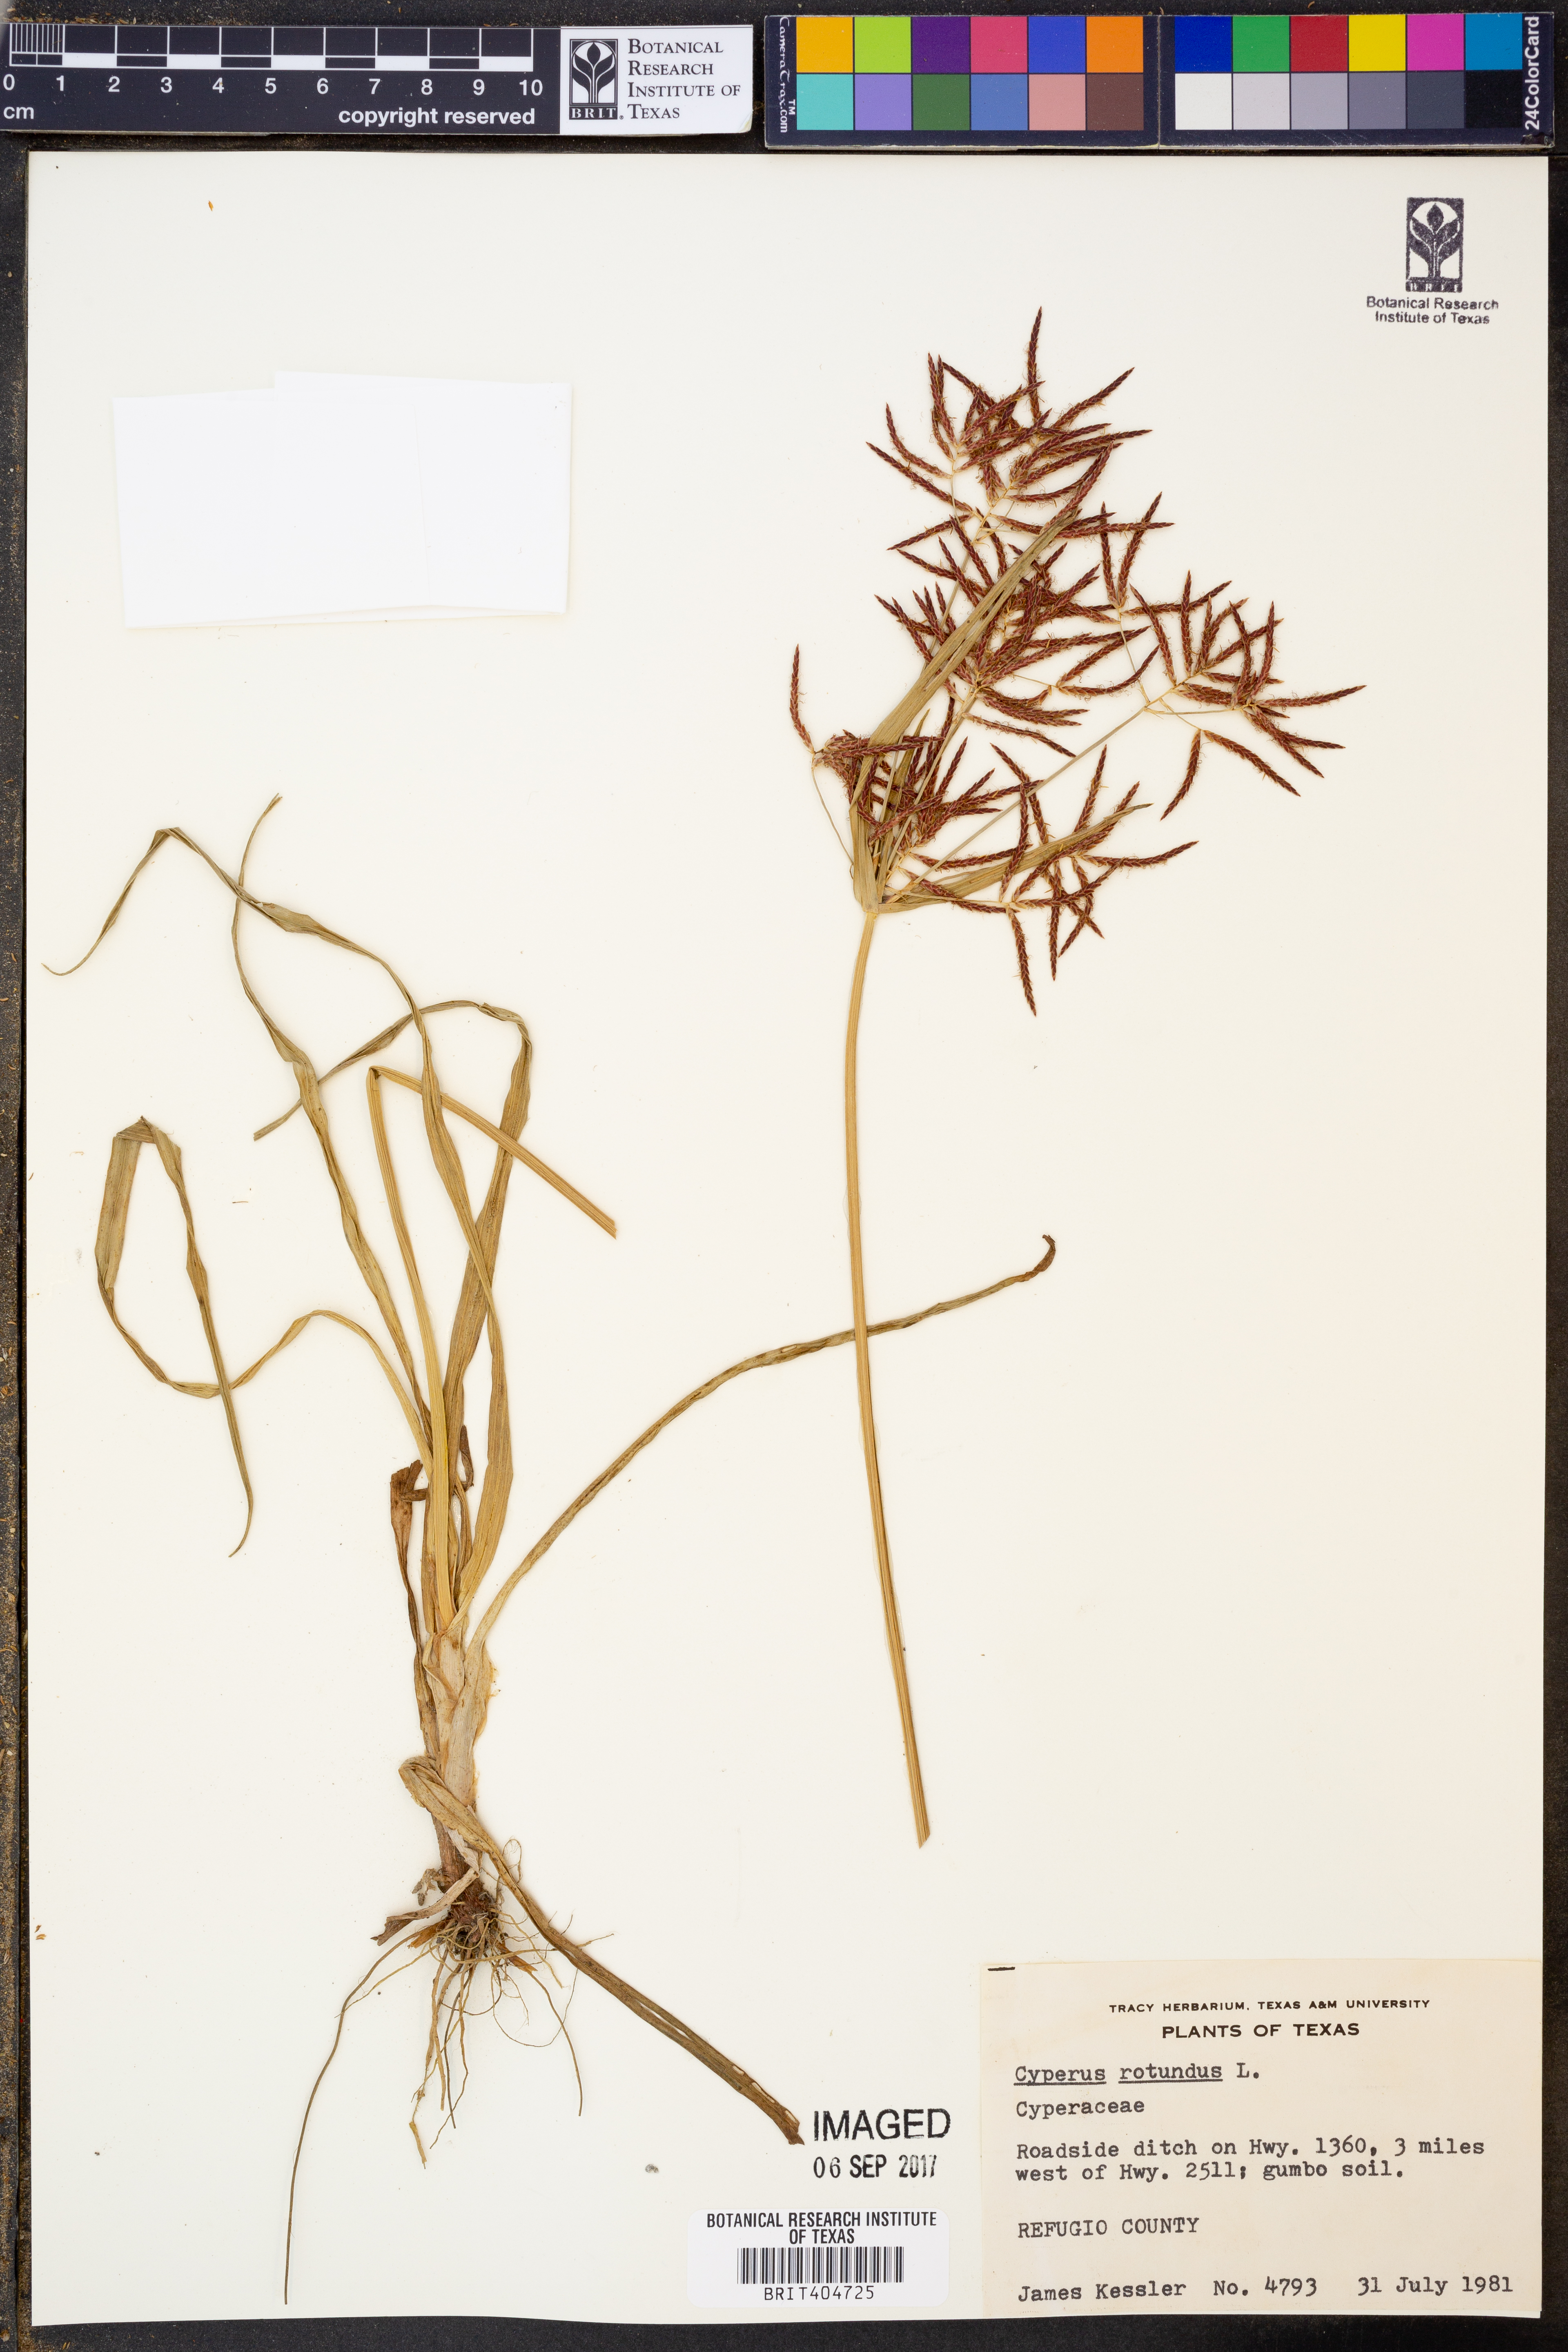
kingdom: Plantae
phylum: Tracheophyta
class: Liliopsida
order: Poales
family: Cyperaceae
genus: Cyperus
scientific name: Cyperus rotundus
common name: Nutgrass
